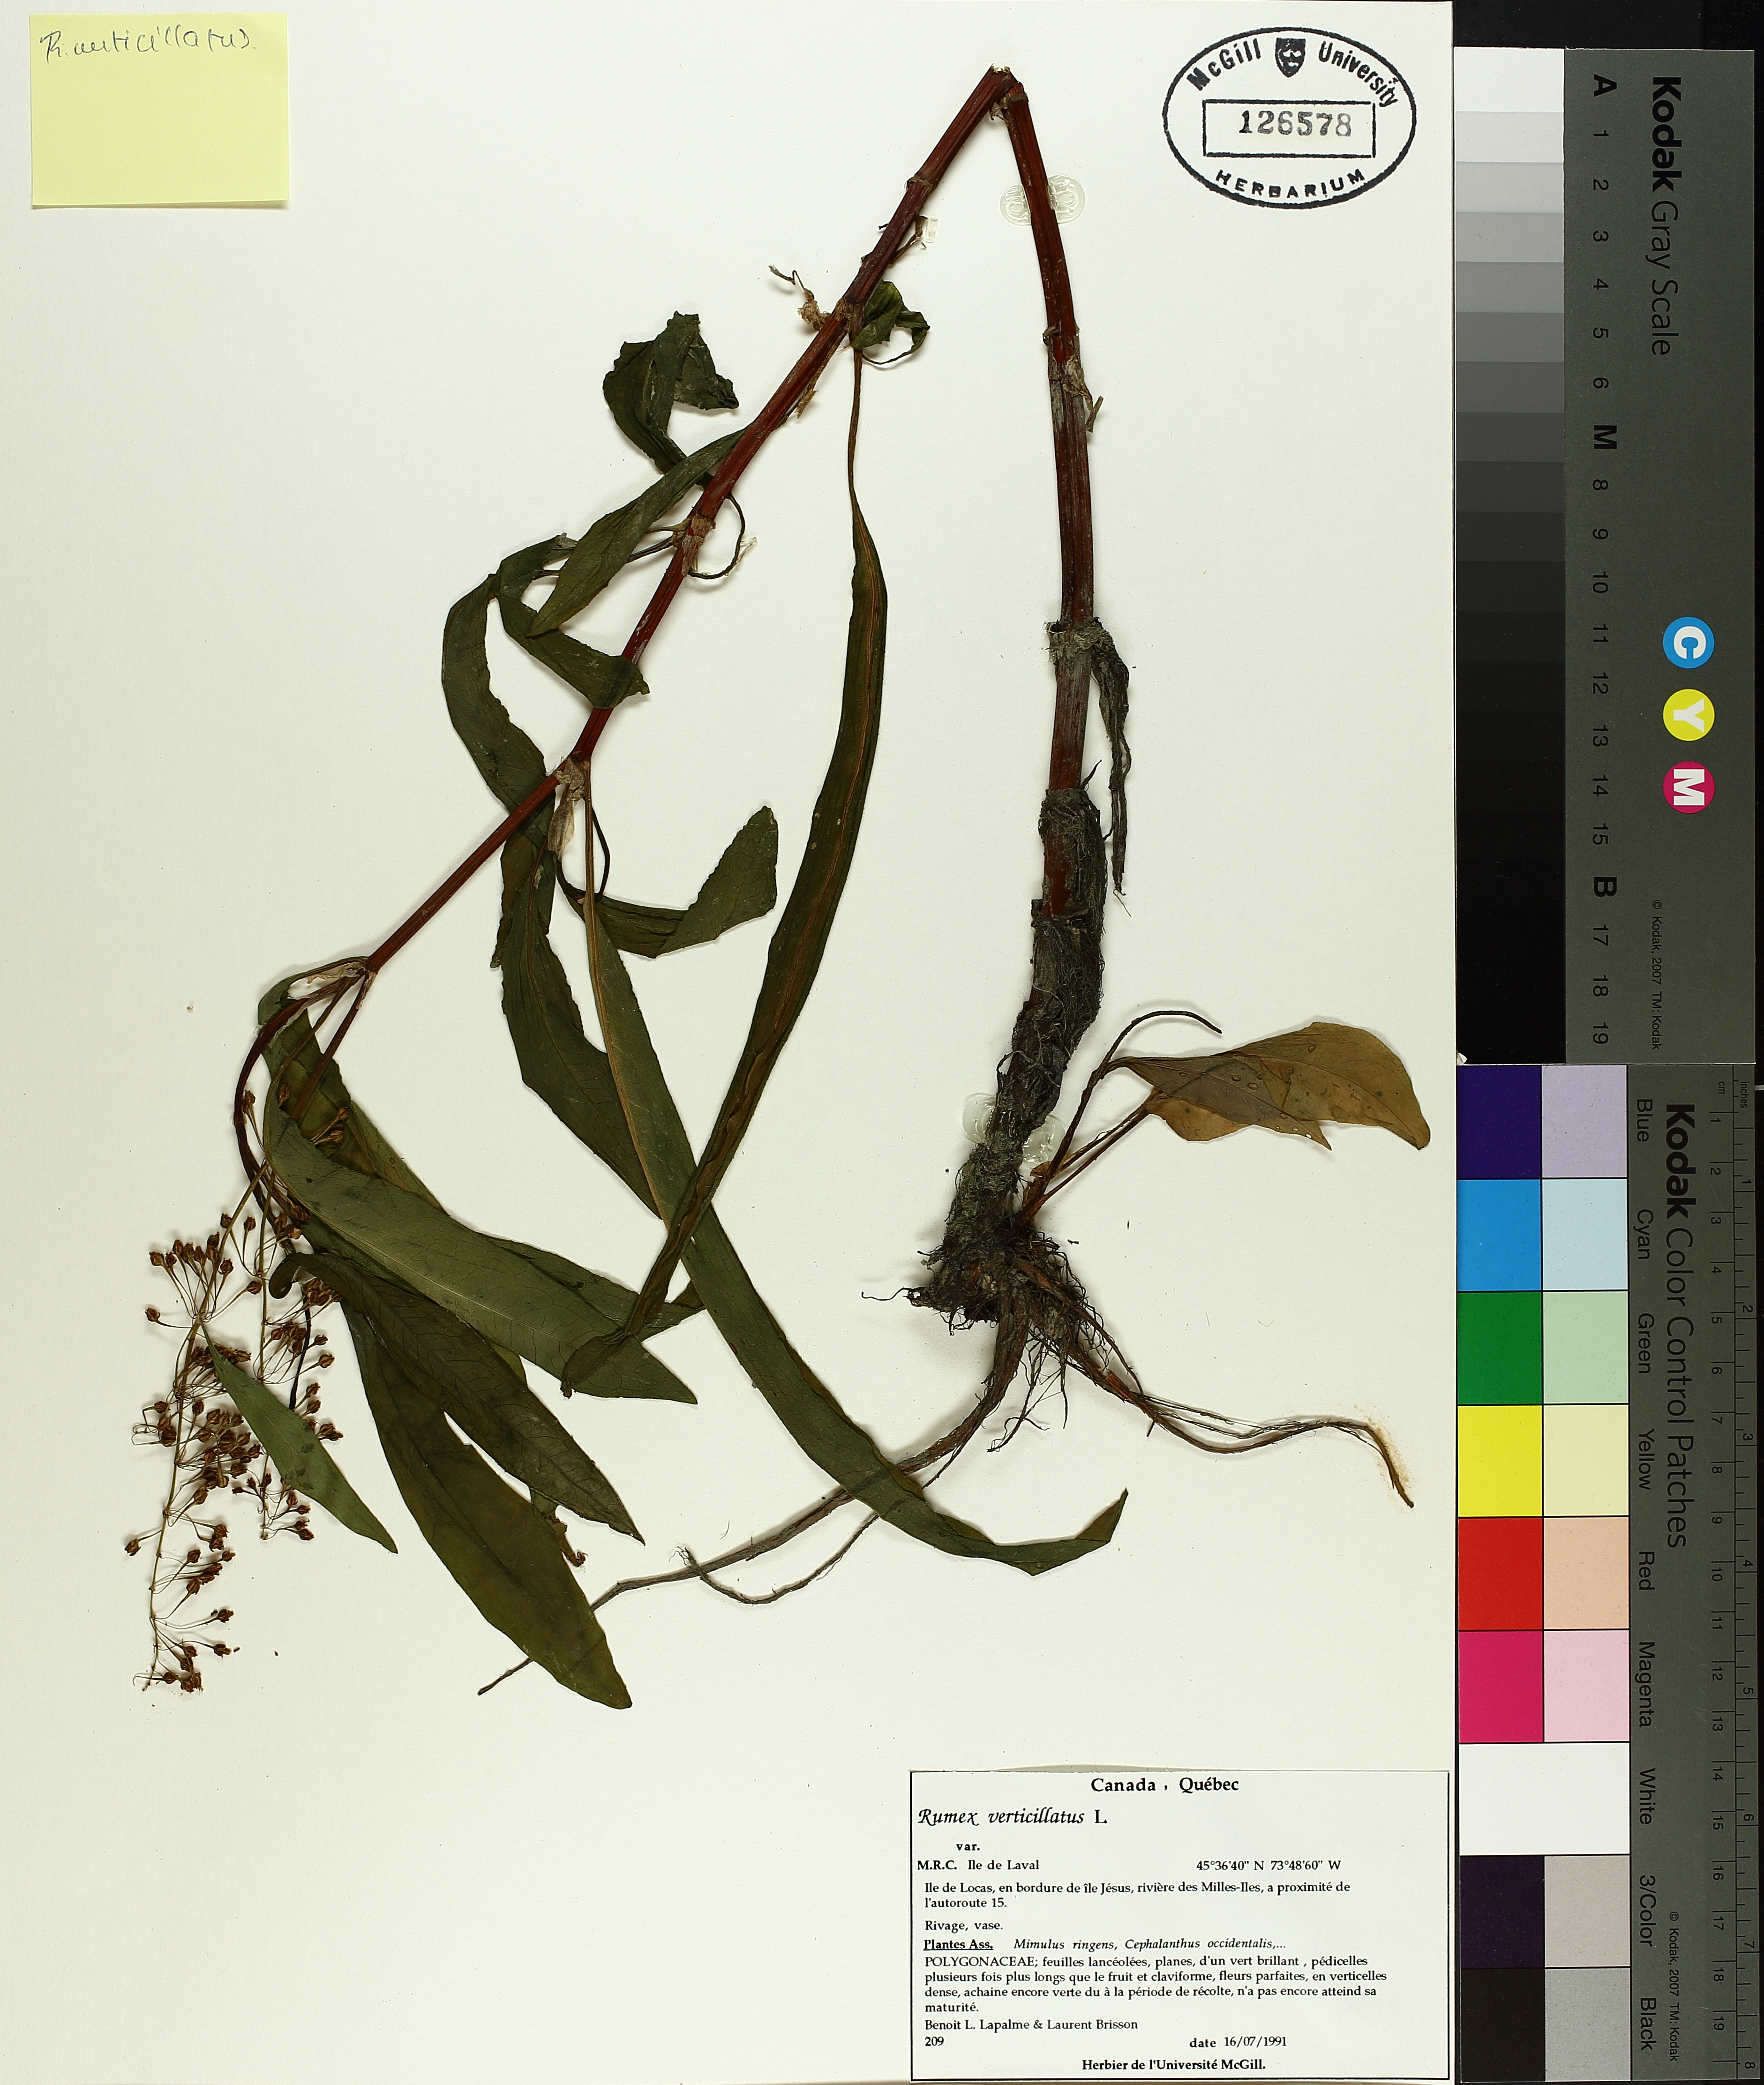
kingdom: Plantae
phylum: Tracheophyta
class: Magnoliopsida
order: Caryophyllales
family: Polygonaceae
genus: Rumex
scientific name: Rumex verticillatus
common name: Swamp dock
